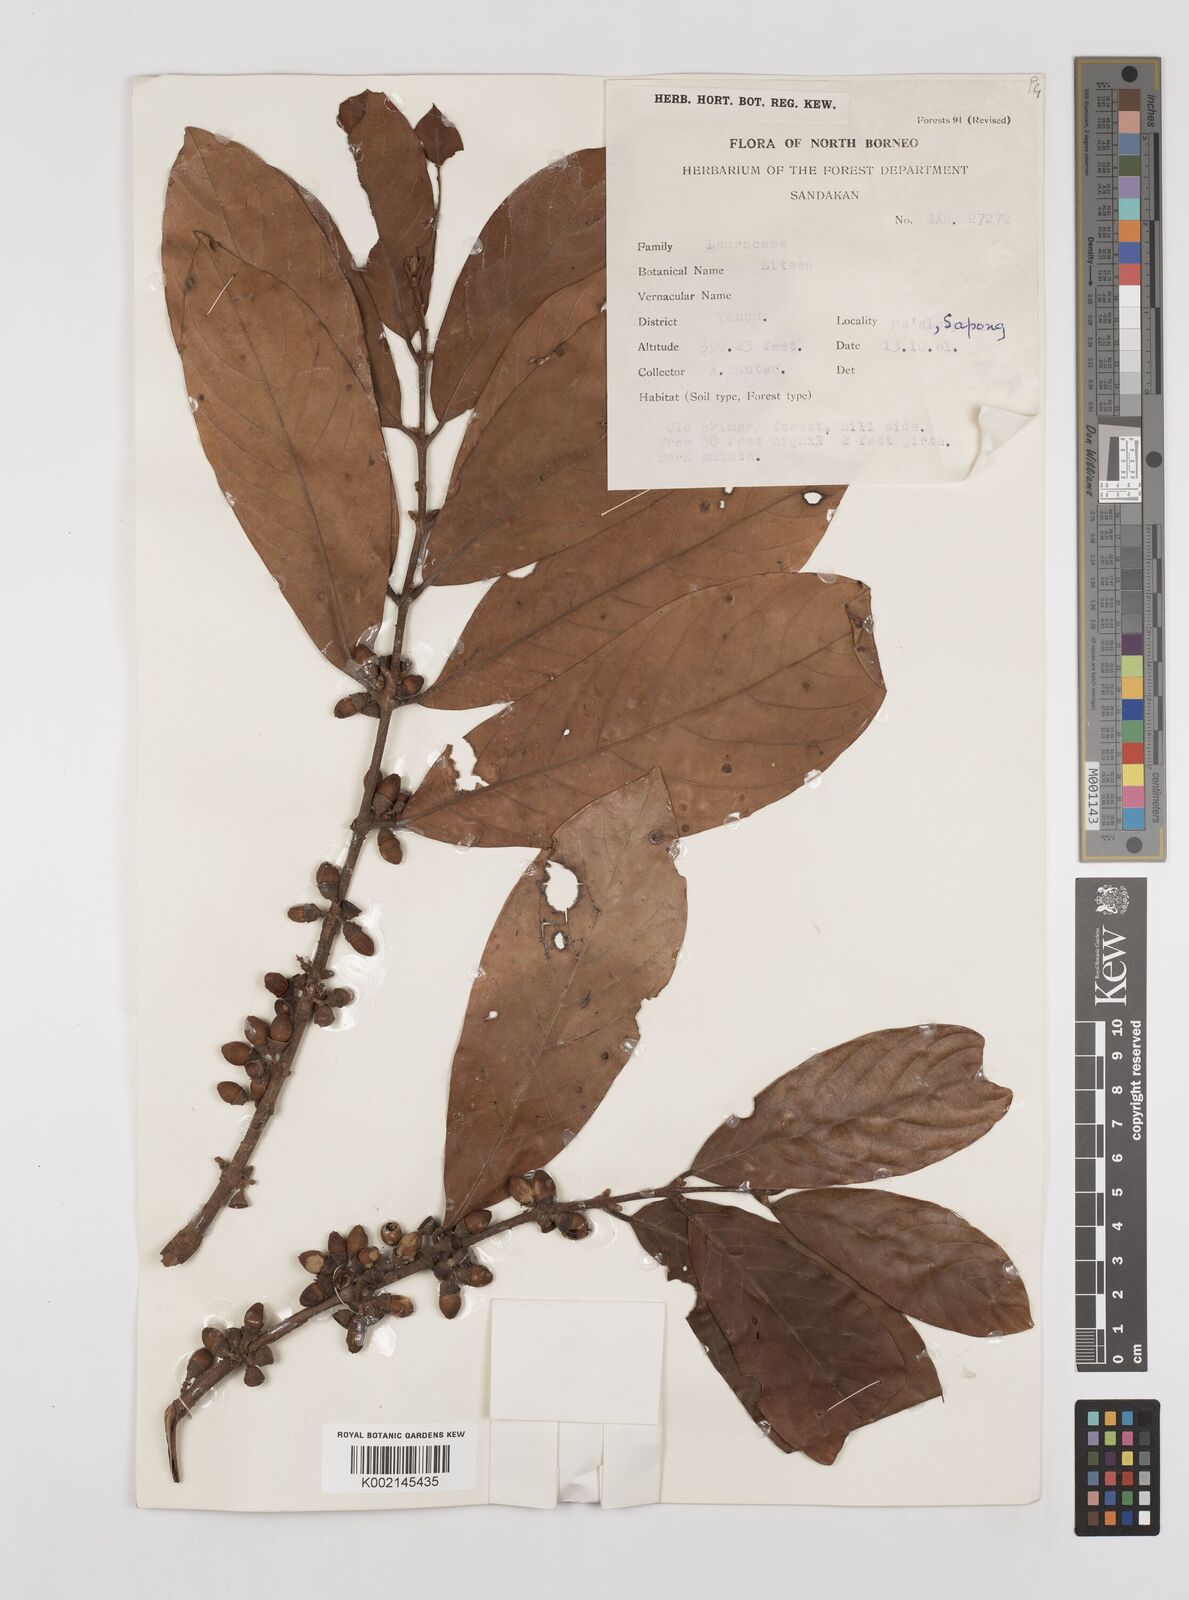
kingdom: Plantae
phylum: Tracheophyta
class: Magnoliopsida
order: Laurales
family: Lauraceae
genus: Litsea
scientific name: Litsea
